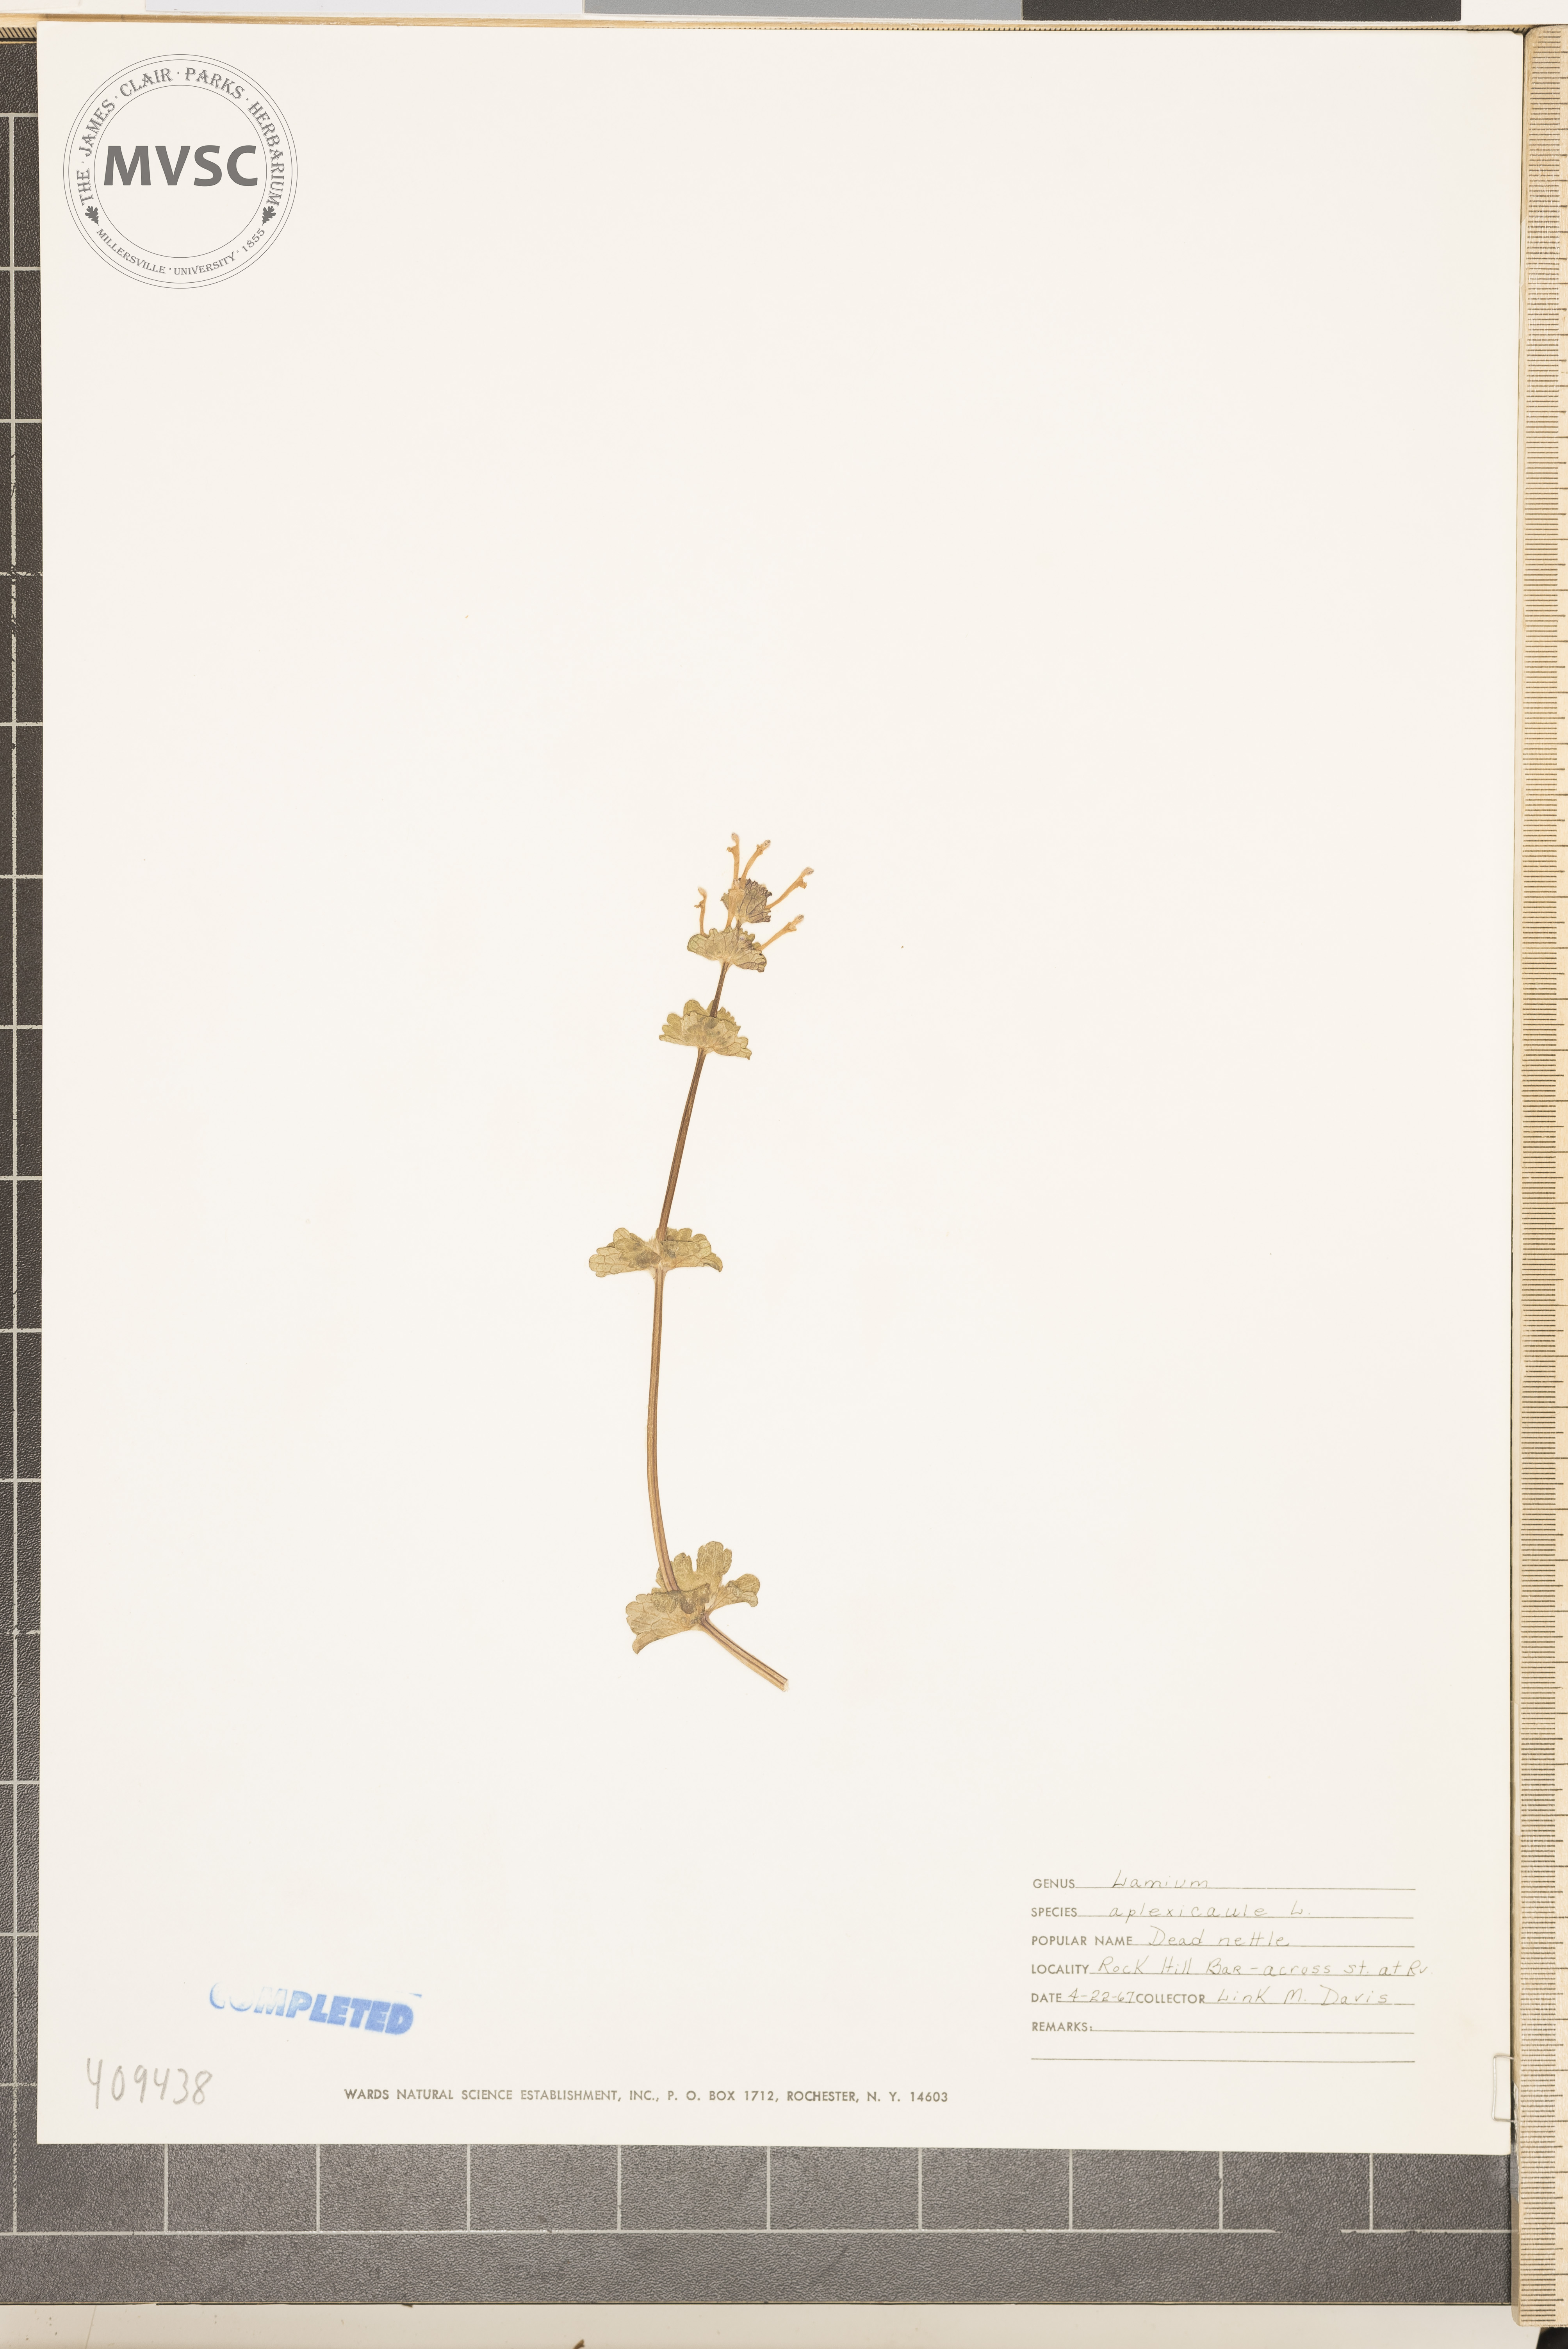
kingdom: Plantae
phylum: Tracheophyta
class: Magnoliopsida
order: Lamiales
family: Lamiaceae
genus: Lamium
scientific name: Lamium amplexicaule
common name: henbit
